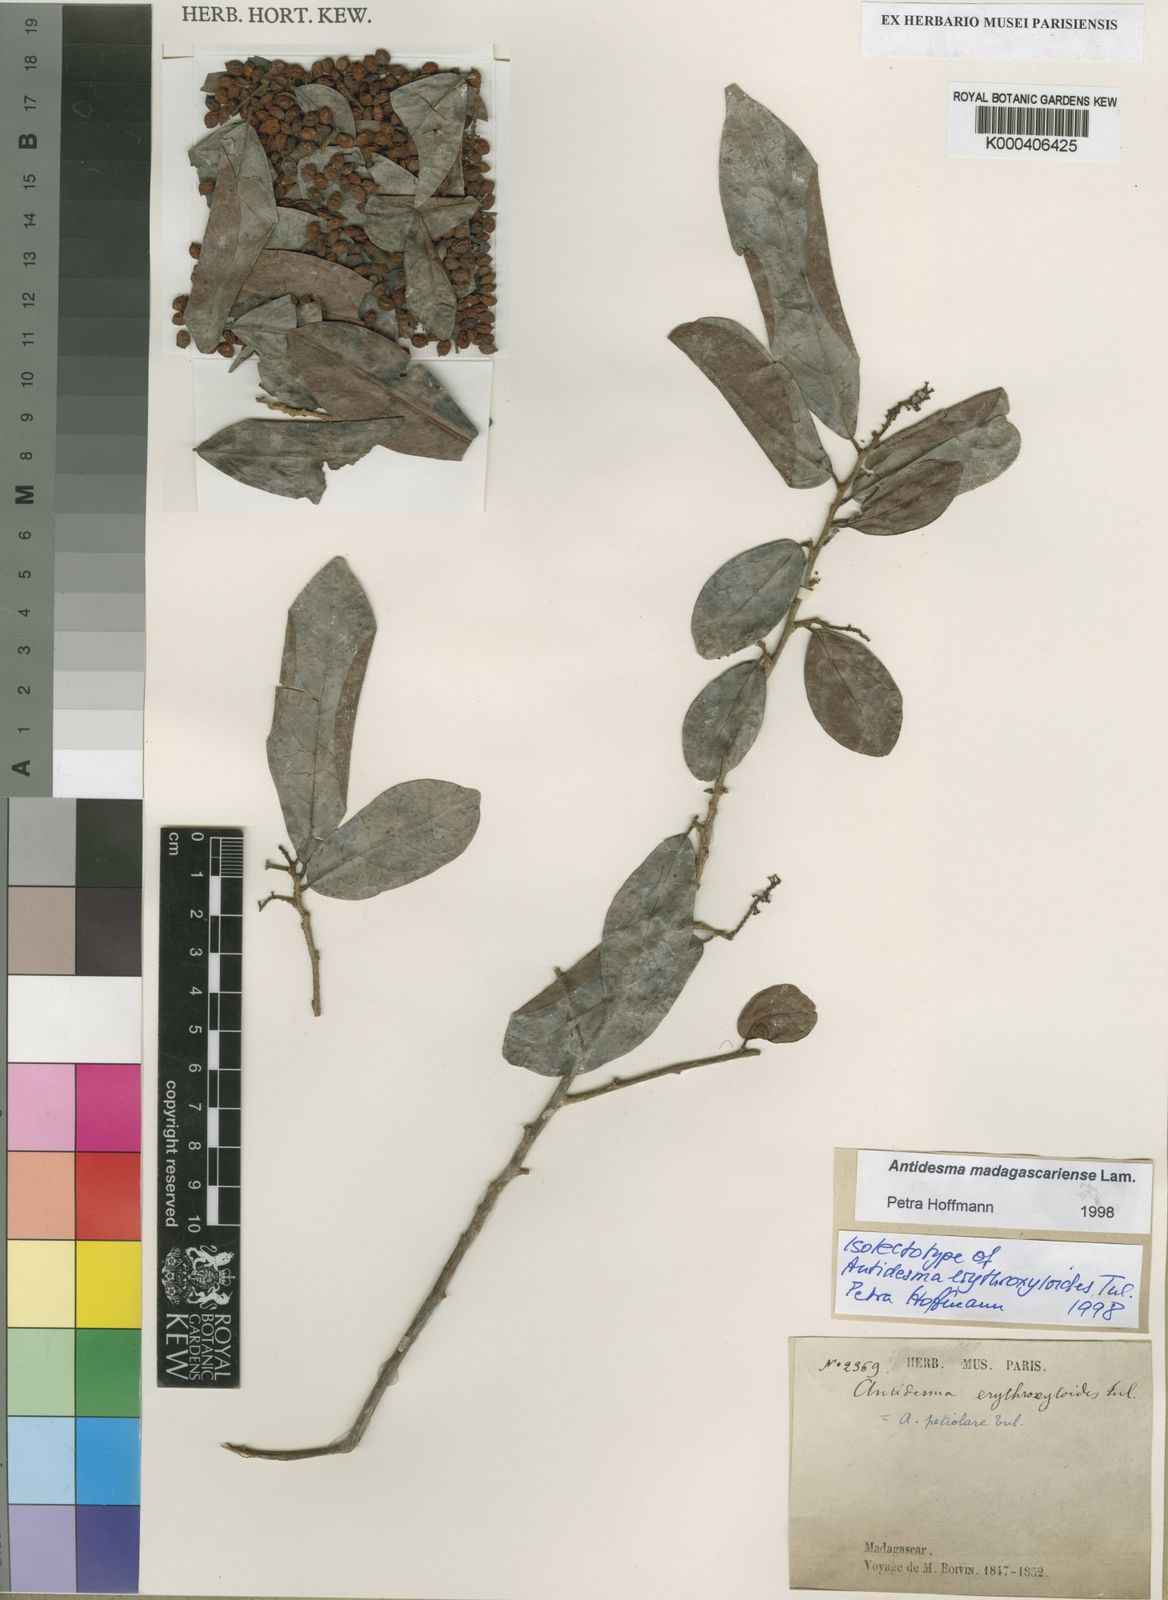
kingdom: Plantae
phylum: Tracheophyta
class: Magnoliopsida
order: Malpighiales
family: Phyllanthaceae
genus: Antidesma
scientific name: Antidesma madagascariense
